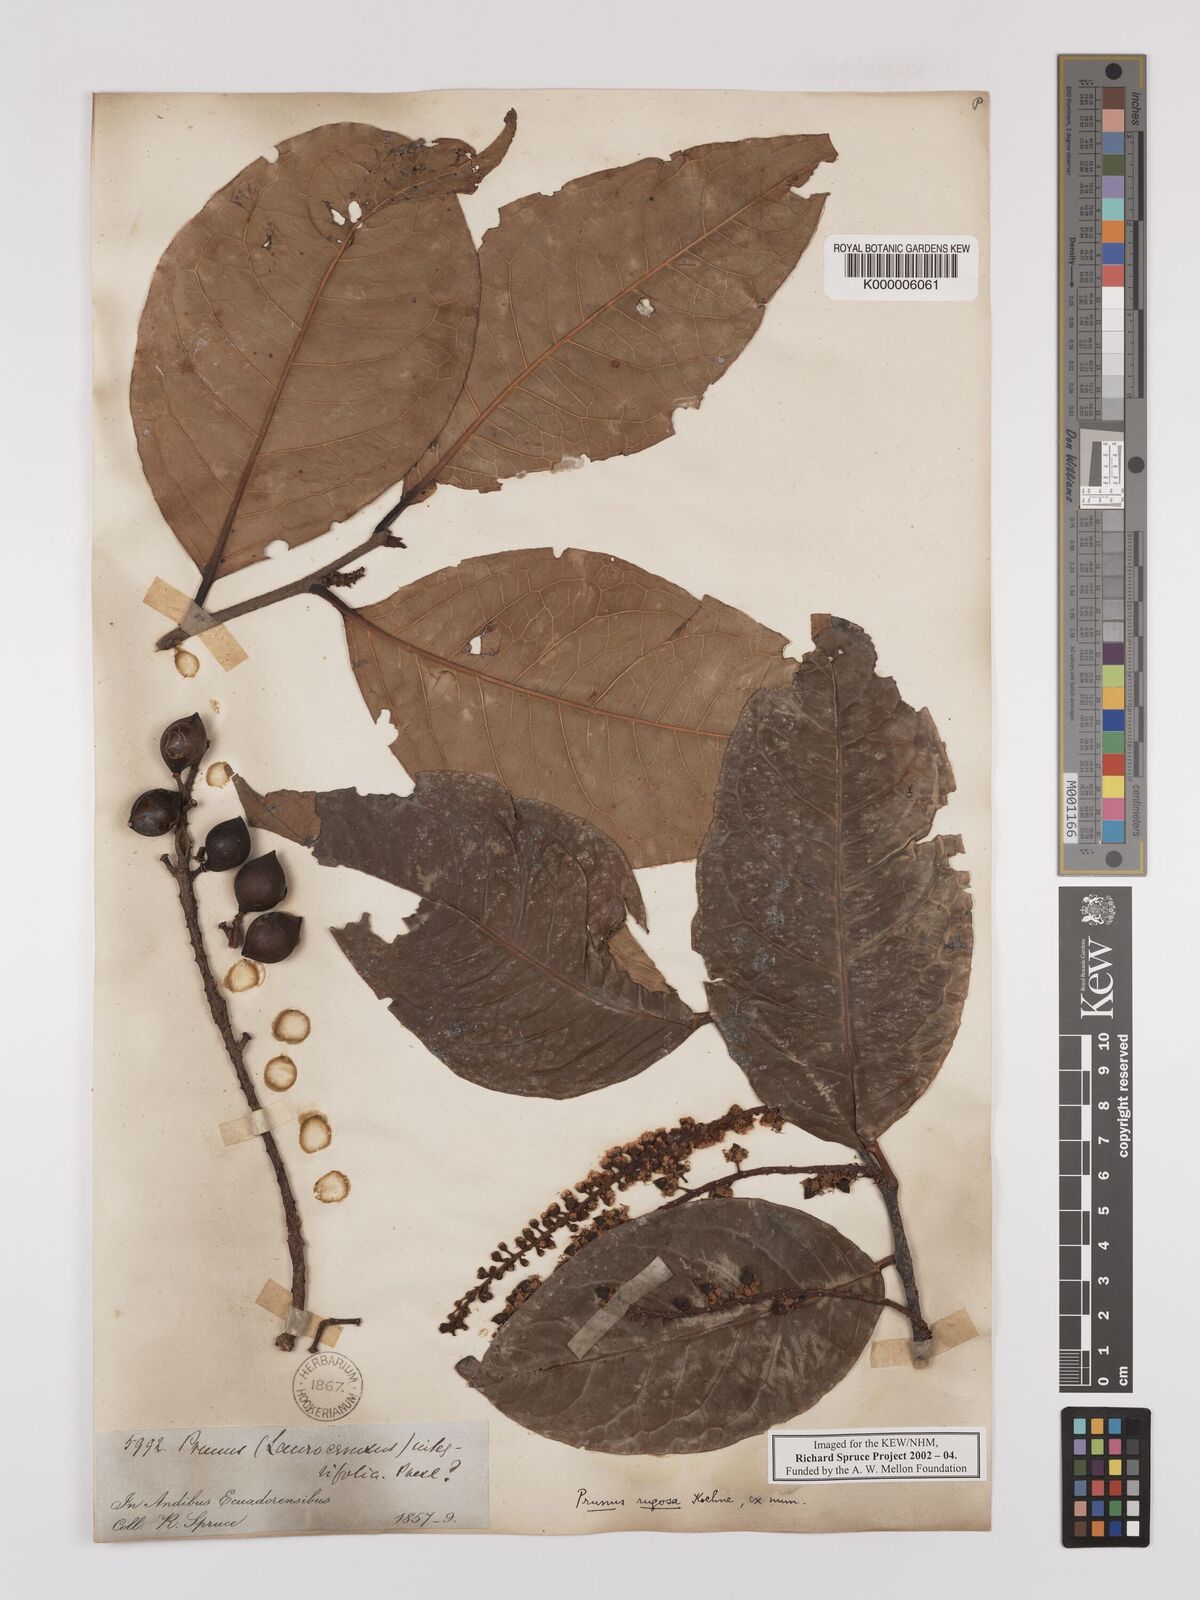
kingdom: Plantae
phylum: Tracheophyta
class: Magnoliopsida
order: Rosales
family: Rosaceae
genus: Prunus
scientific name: Prunus brittoniana
